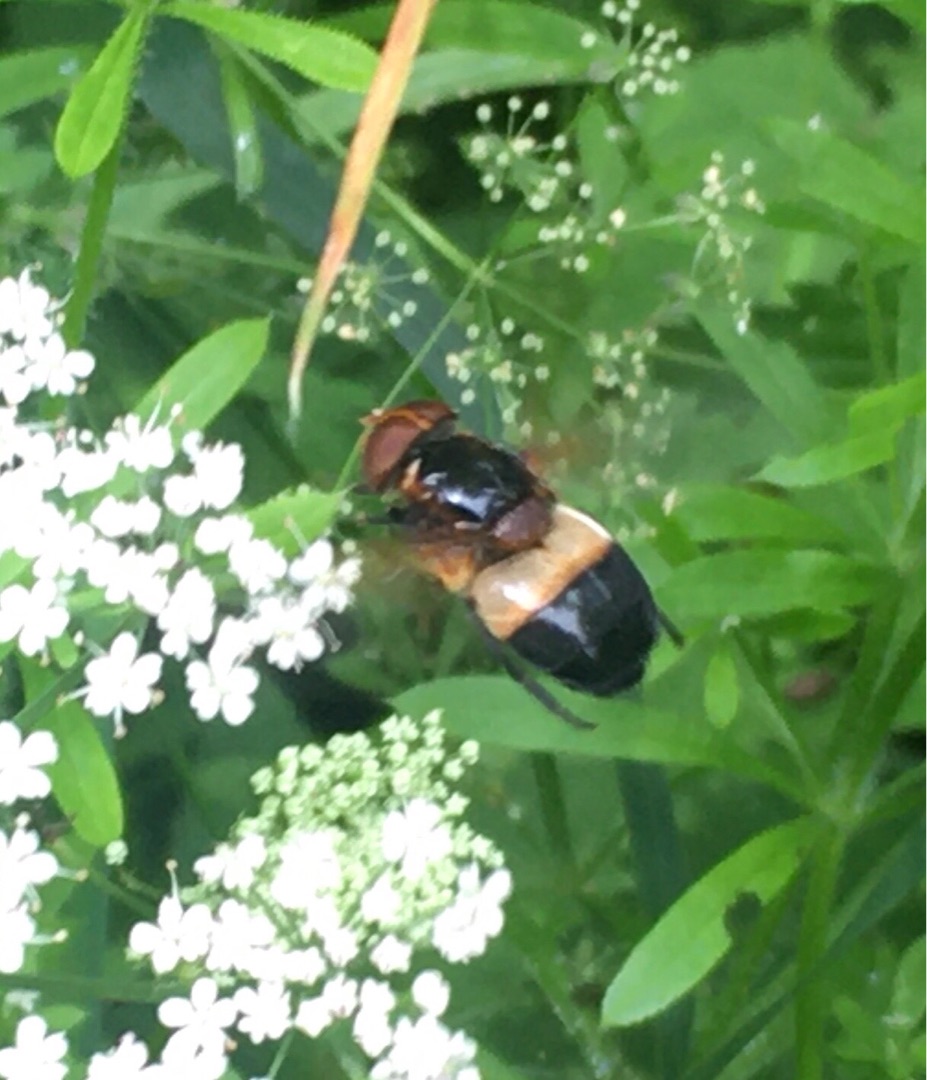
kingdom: Animalia
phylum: Arthropoda
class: Insecta
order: Diptera
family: Syrphidae
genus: Volucella
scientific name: Volucella pellucens
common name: Hvidbåndet humlesvirreflue
